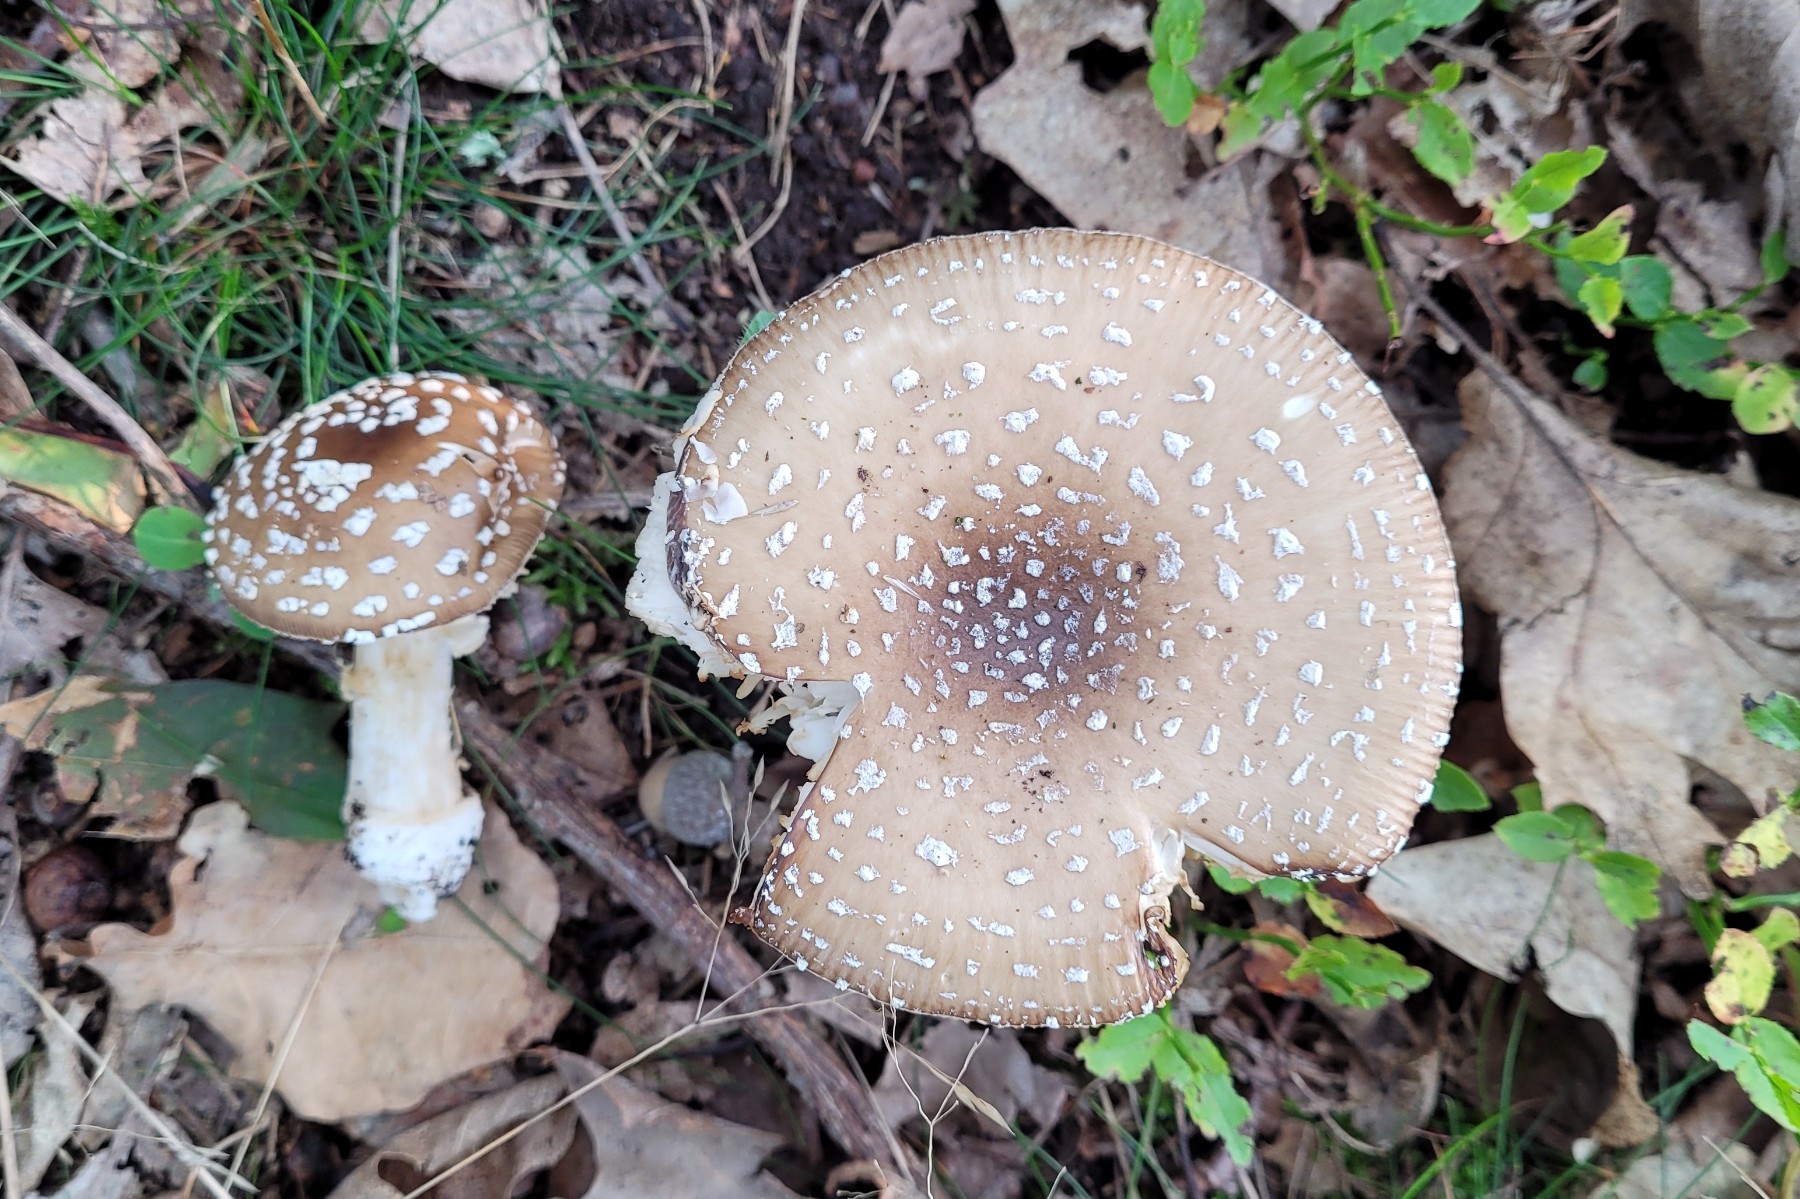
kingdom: Fungi
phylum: Basidiomycota
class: Agaricomycetes
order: Agaricales
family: Amanitaceae
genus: Amanita
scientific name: Amanita pantherina
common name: panter-fluesvamp
